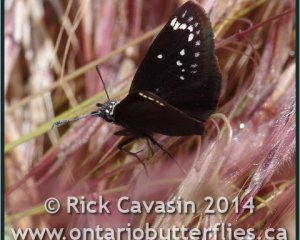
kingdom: Animalia
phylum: Arthropoda
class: Insecta
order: Lepidoptera
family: Hesperiidae
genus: Pholisora
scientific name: Pholisora catullus
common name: Common Sootywing
